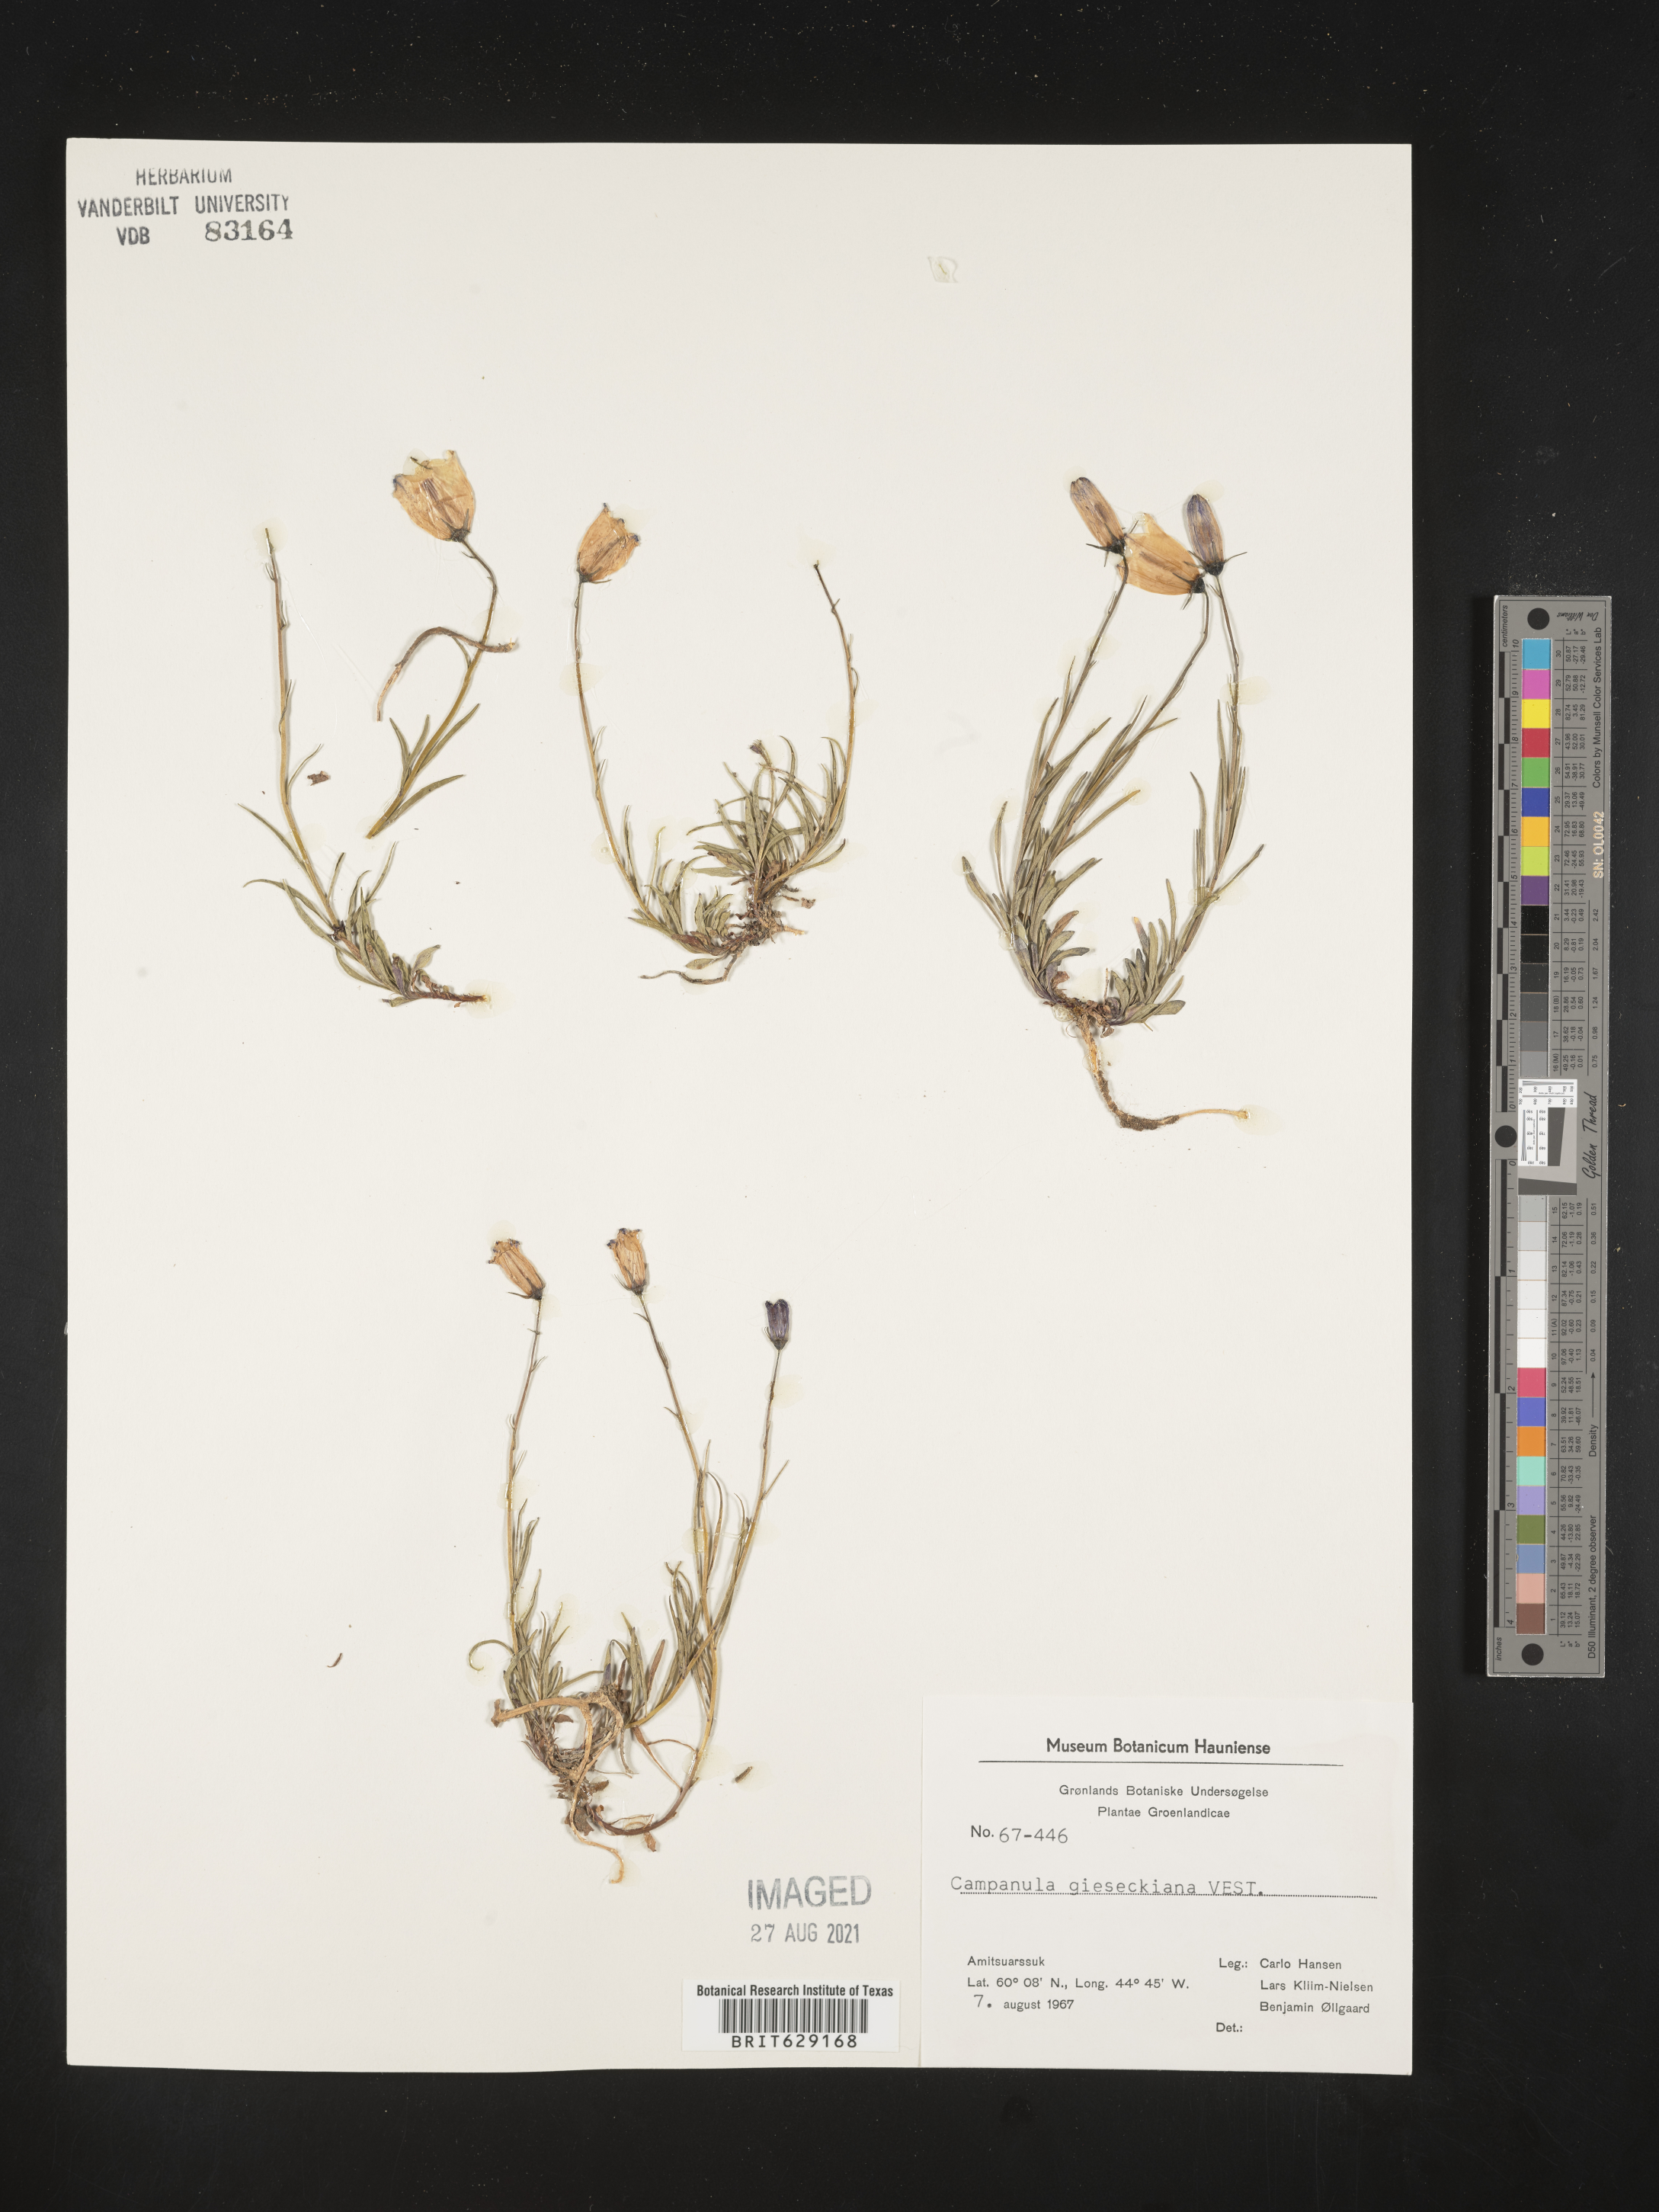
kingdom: Plantae
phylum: Tracheophyta
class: Magnoliopsida
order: Asterales
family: Campanulaceae
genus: Campanula
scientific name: Campanula rotundifolia
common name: Harebell
